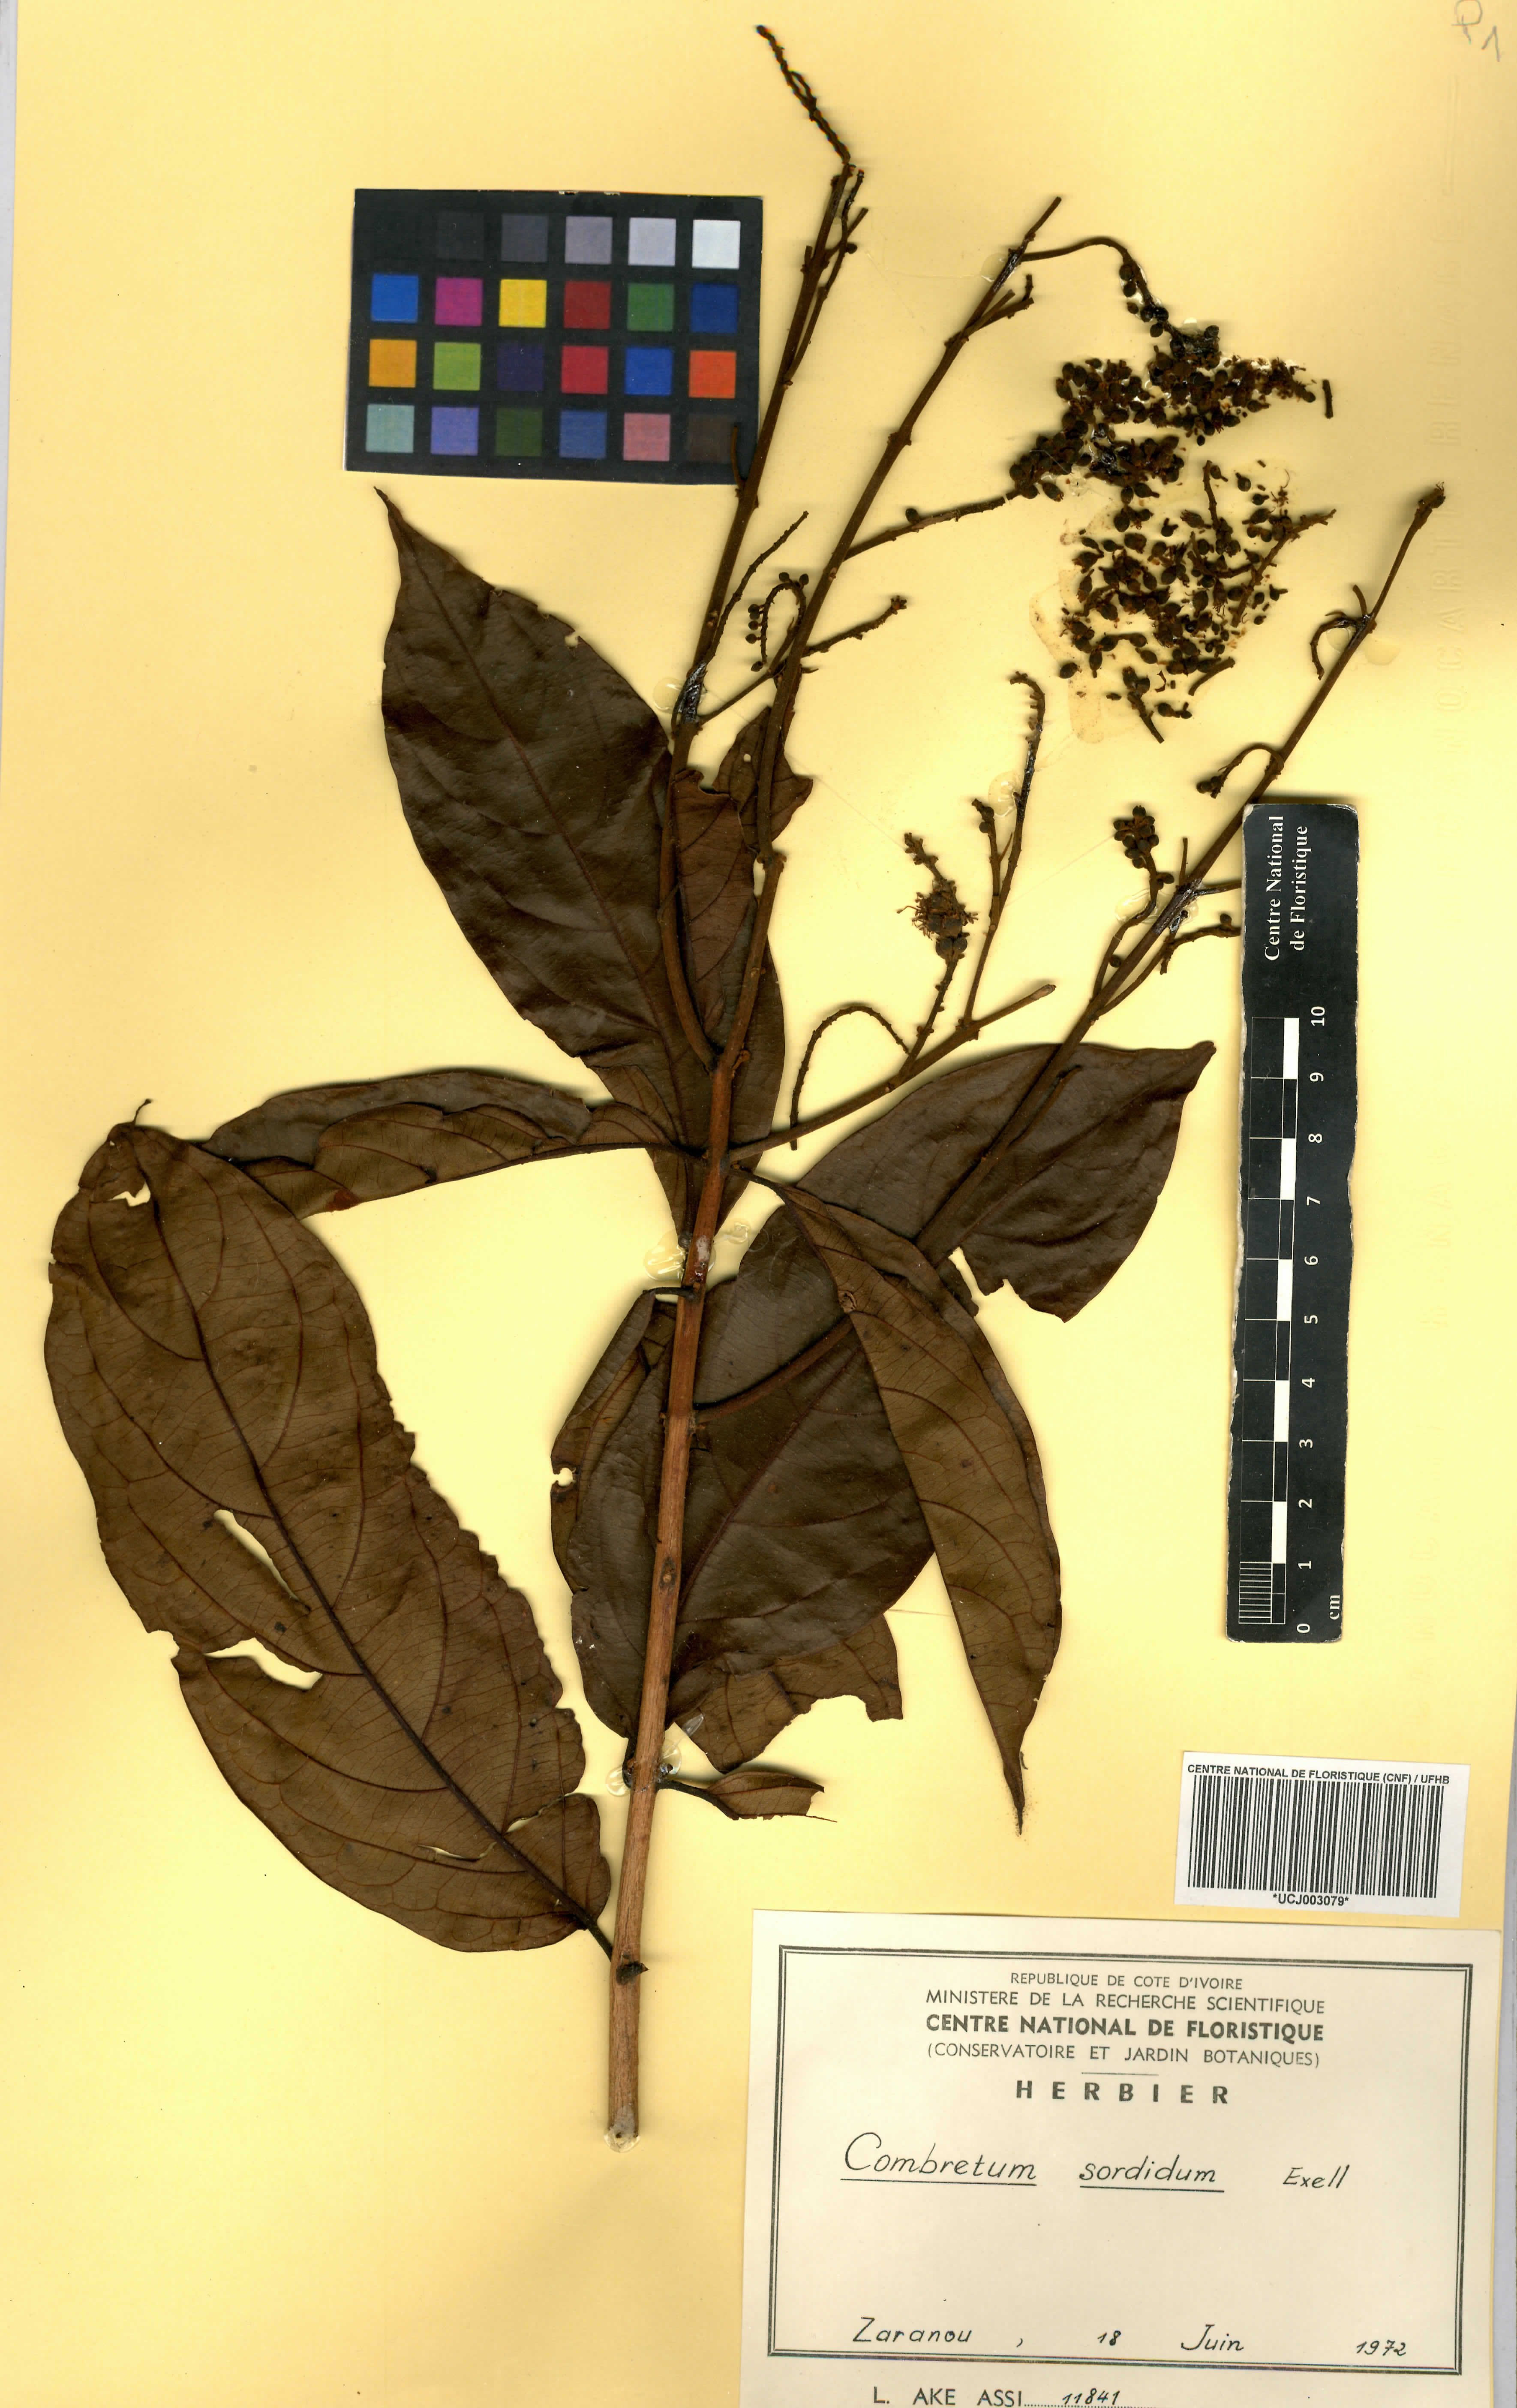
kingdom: Plantae
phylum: Tracheophyta
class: Magnoliopsida
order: Myrtales
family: Combretaceae
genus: Combretum
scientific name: Combretum sordidum
